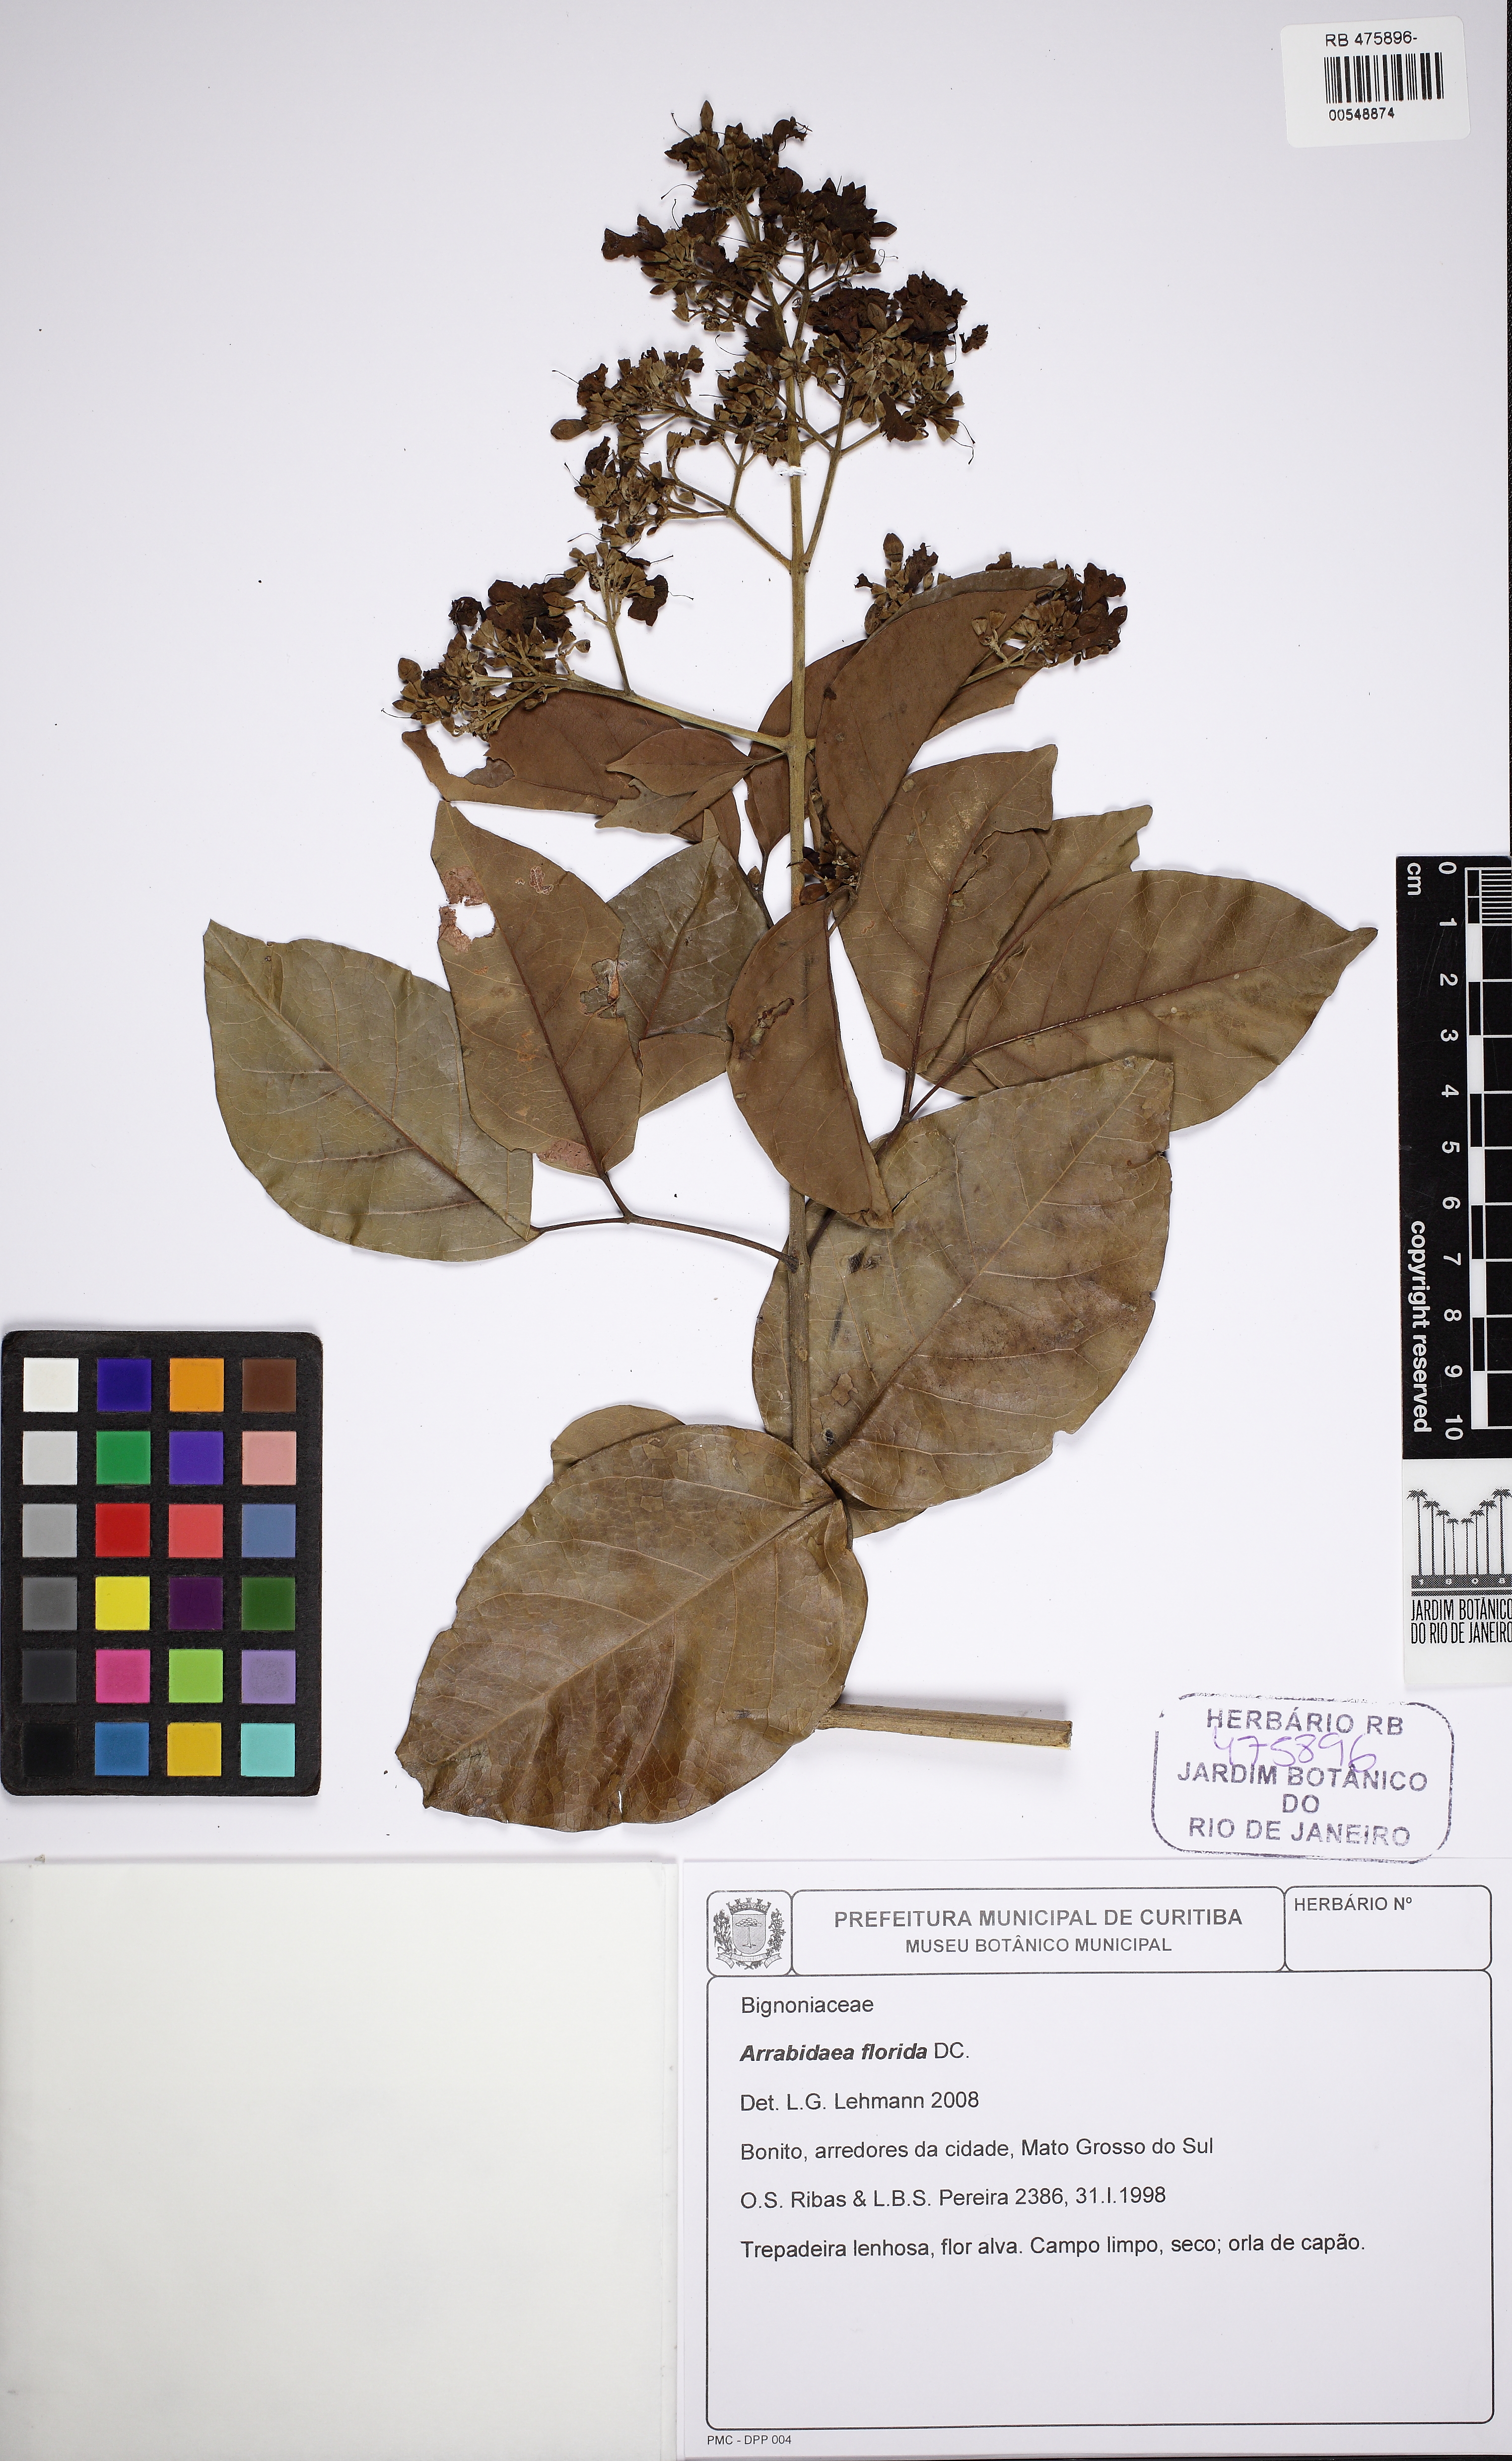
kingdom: Plantae
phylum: Tracheophyta
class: Magnoliopsida
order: Lamiales
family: Bignoniaceae
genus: Fridericia
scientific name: Fridericia florida
